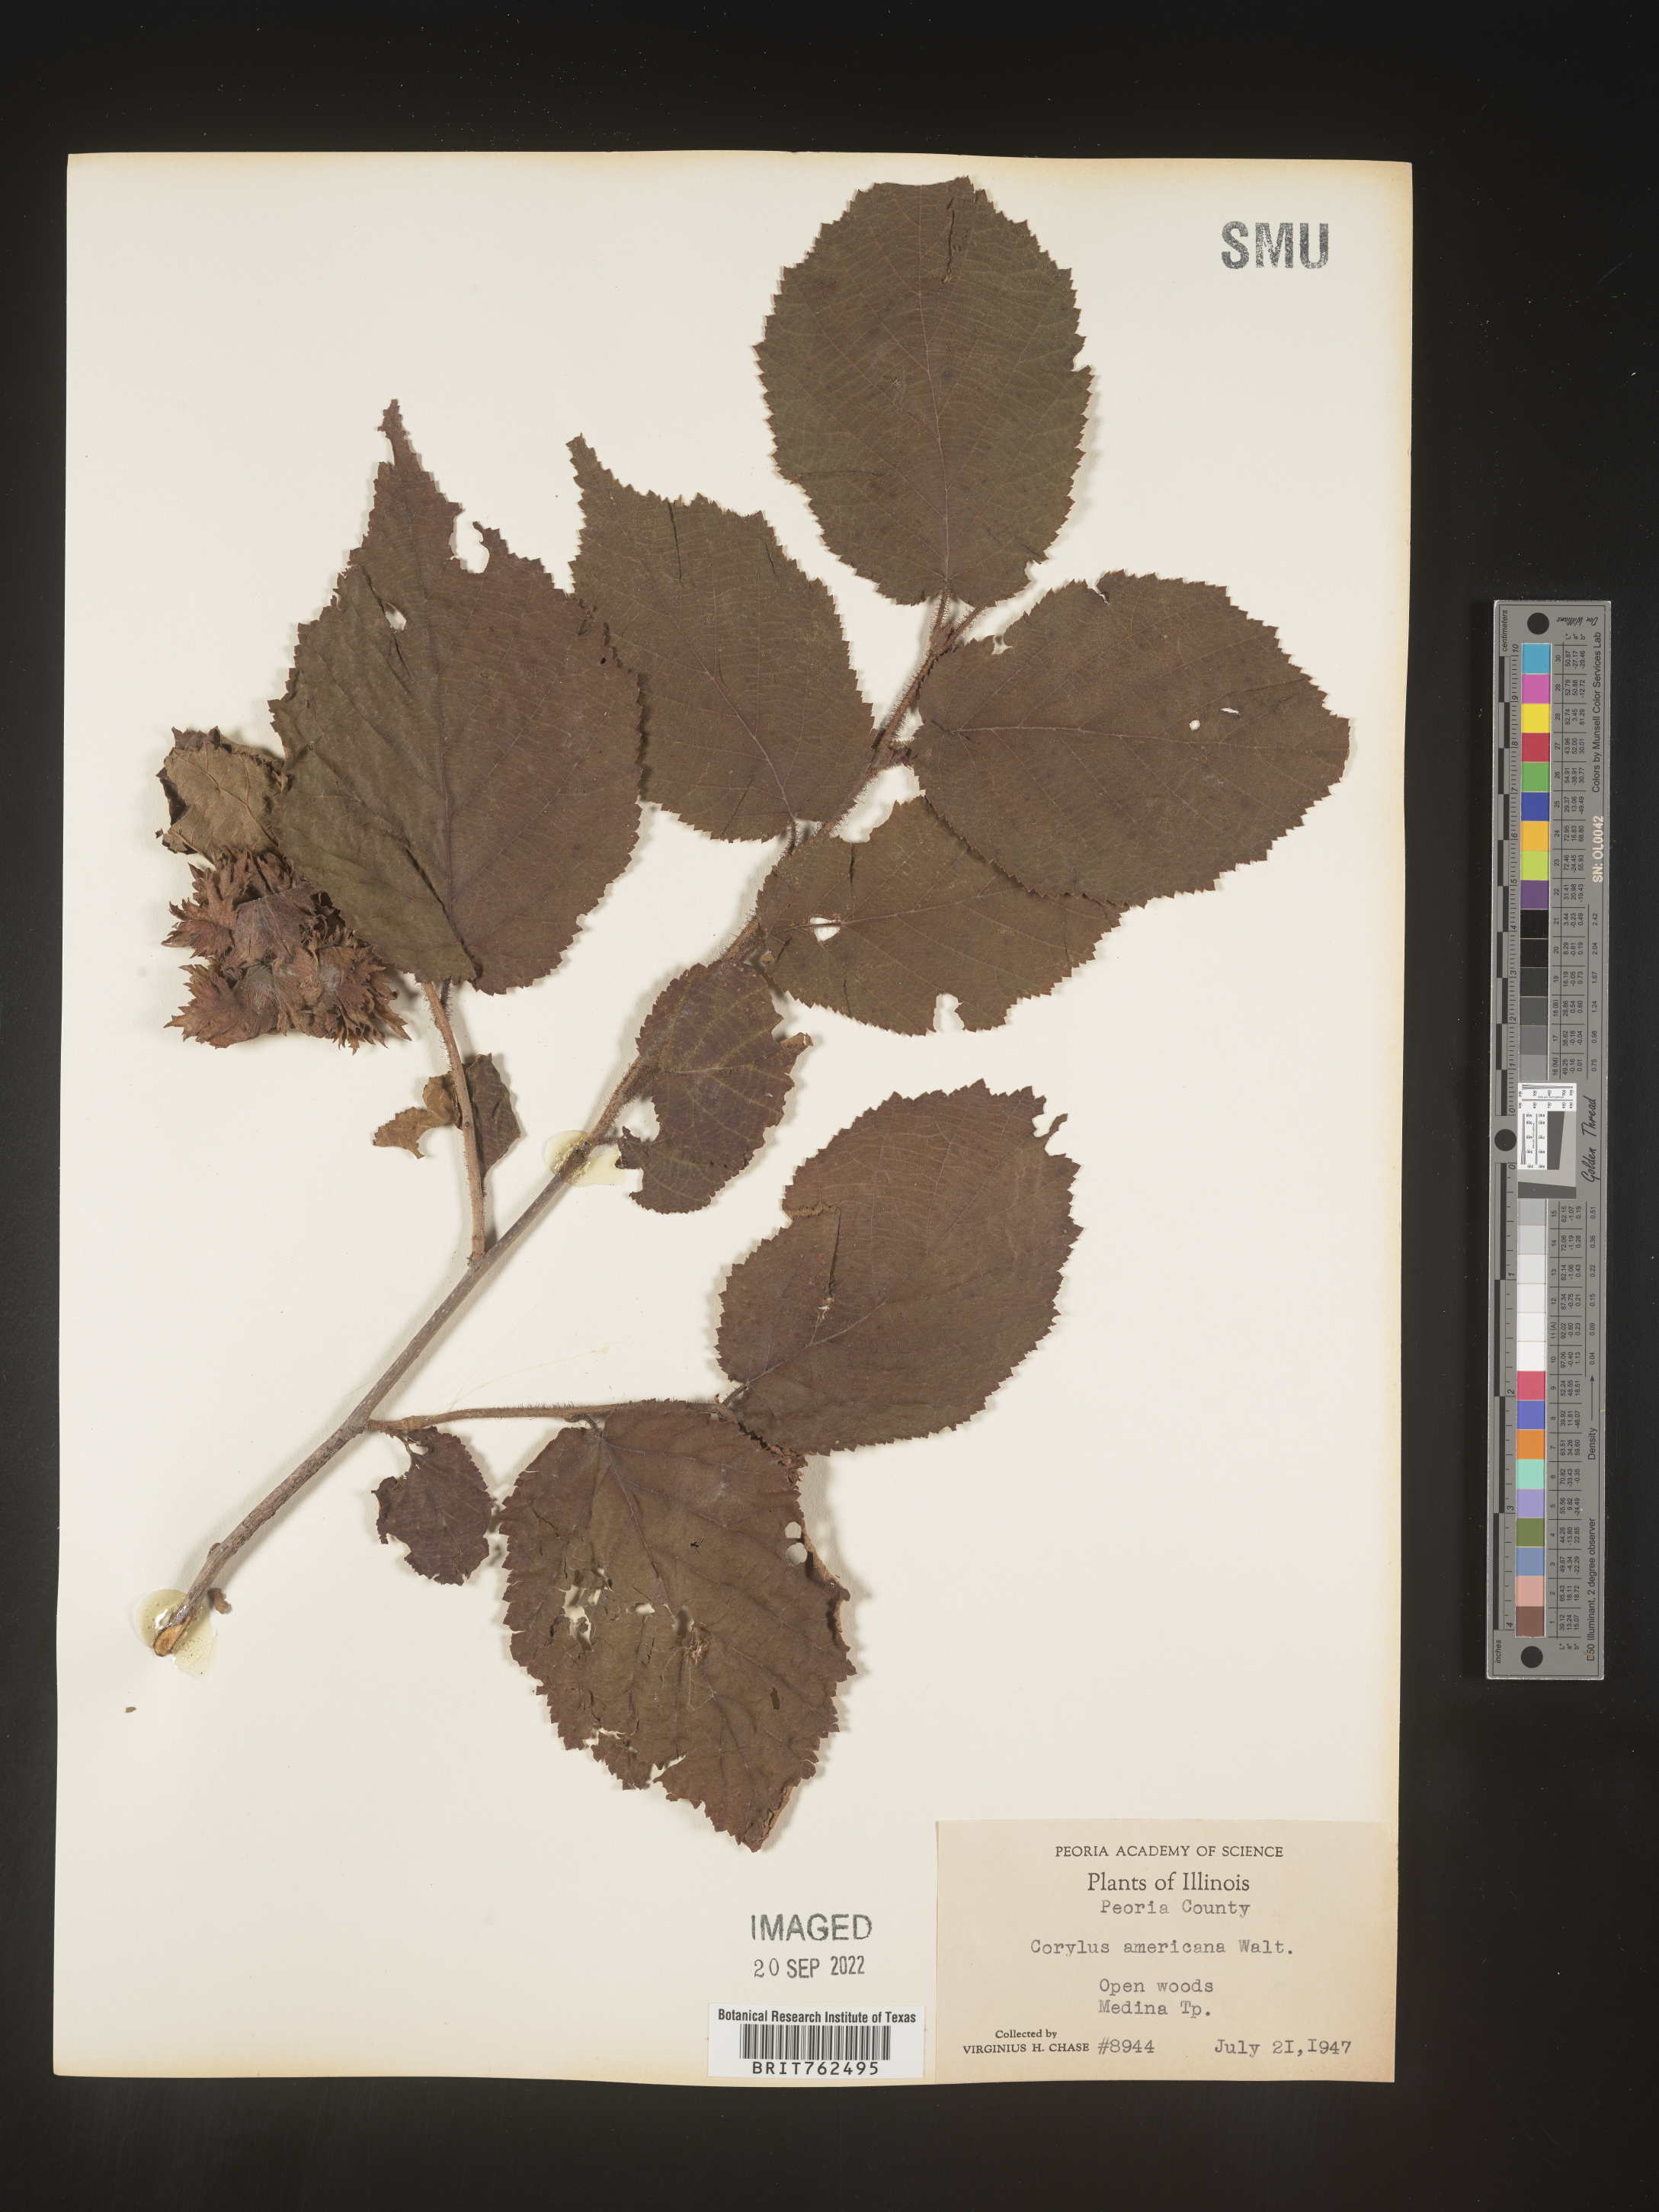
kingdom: Plantae
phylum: Tracheophyta
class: Magnoliopsida
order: Fagales
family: Betulaceae
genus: Corylus
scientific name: Corylus americana
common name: American hazel
